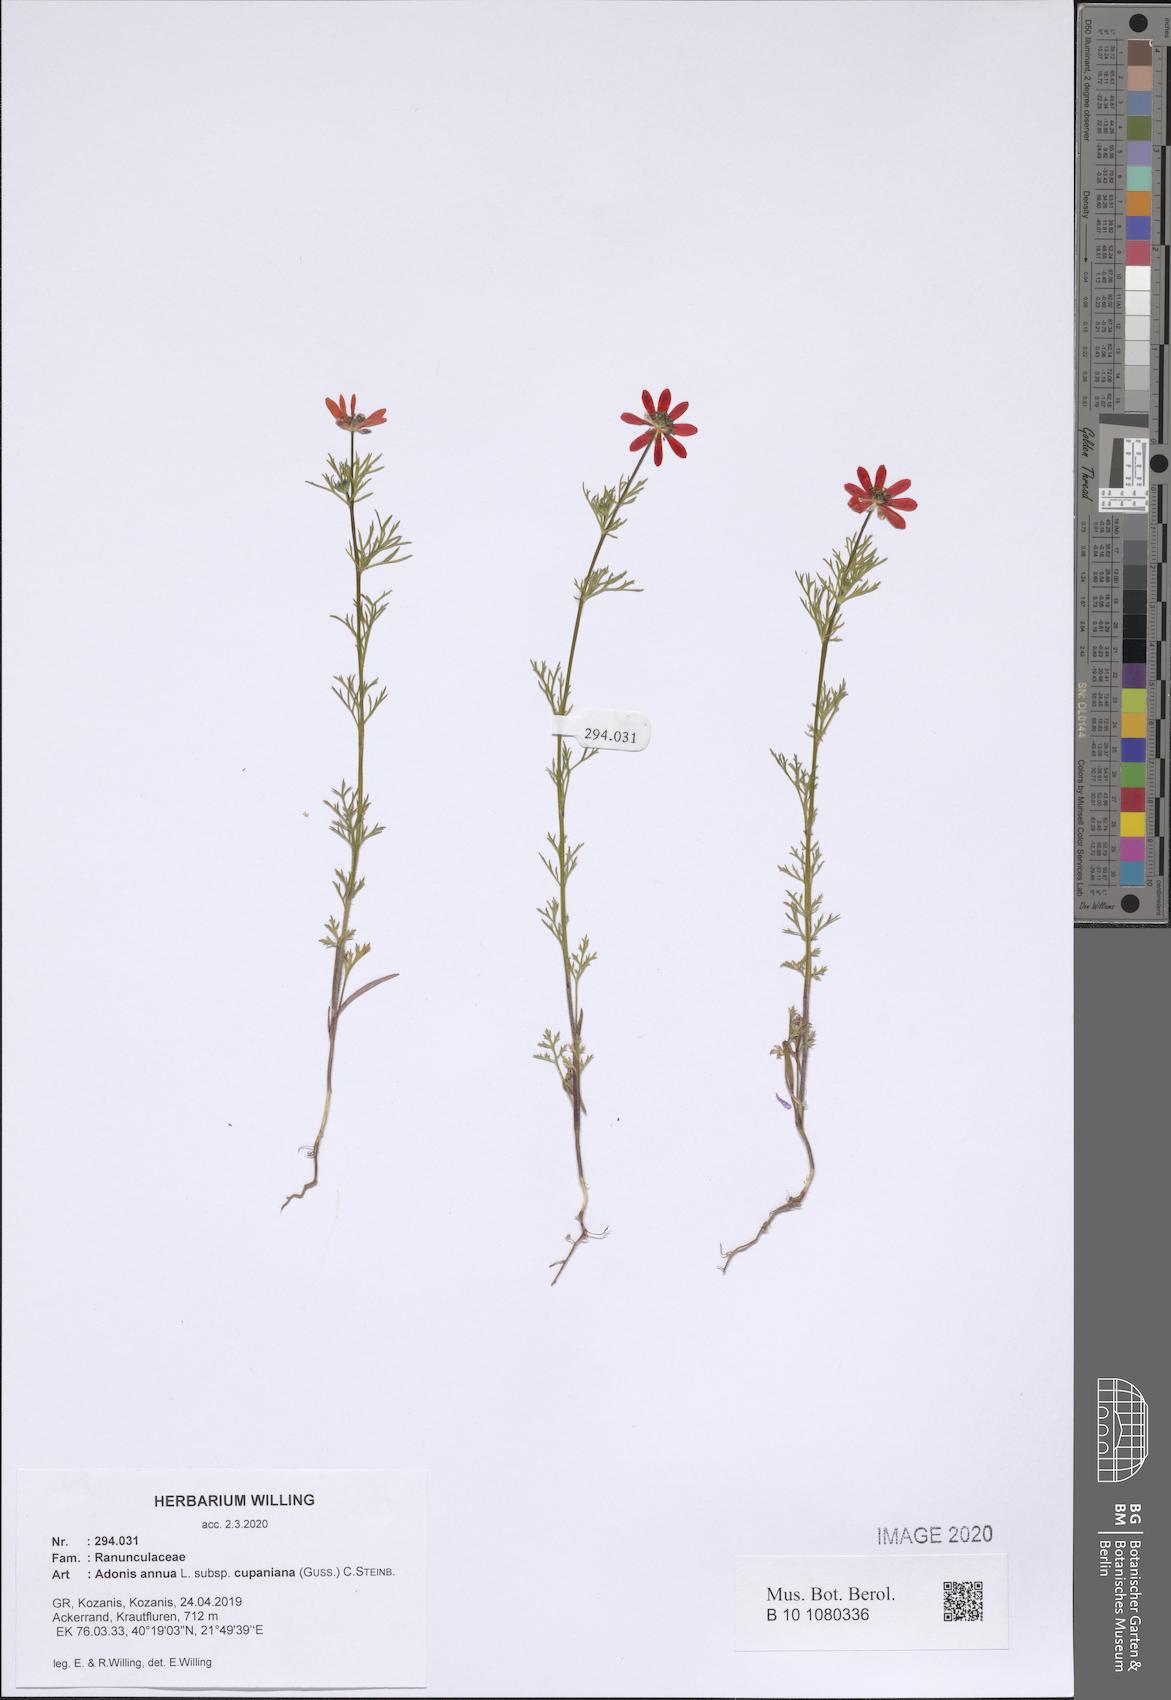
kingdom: Plantae
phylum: Tracheophyta
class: Magnoliopsida
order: Ranunculales
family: Ranunculaceae
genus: Adonis
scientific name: Adonis annua
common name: Pheasant's-eye
